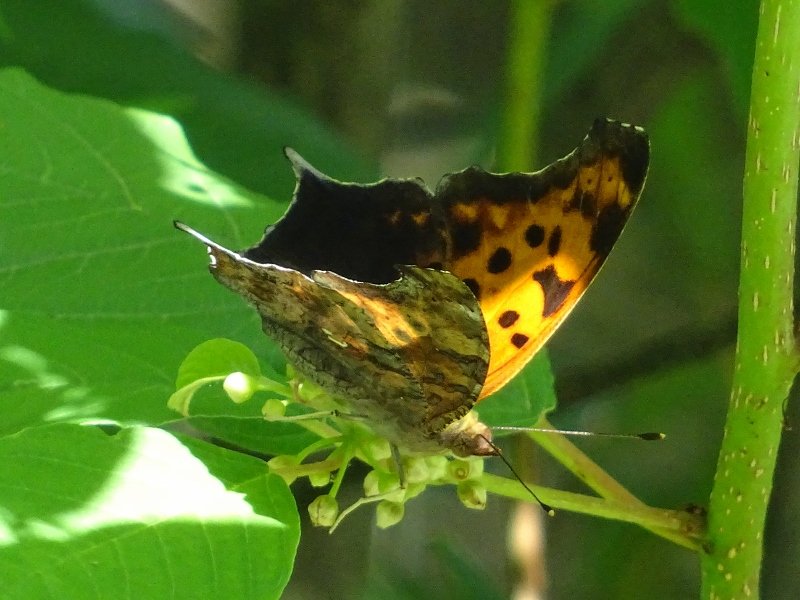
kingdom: Animalia
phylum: Arthropoda
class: Insecta
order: Lepidoptera
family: Nymphalidae
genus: Polygonia
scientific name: Polygonia interrogationis
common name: Question Mark
